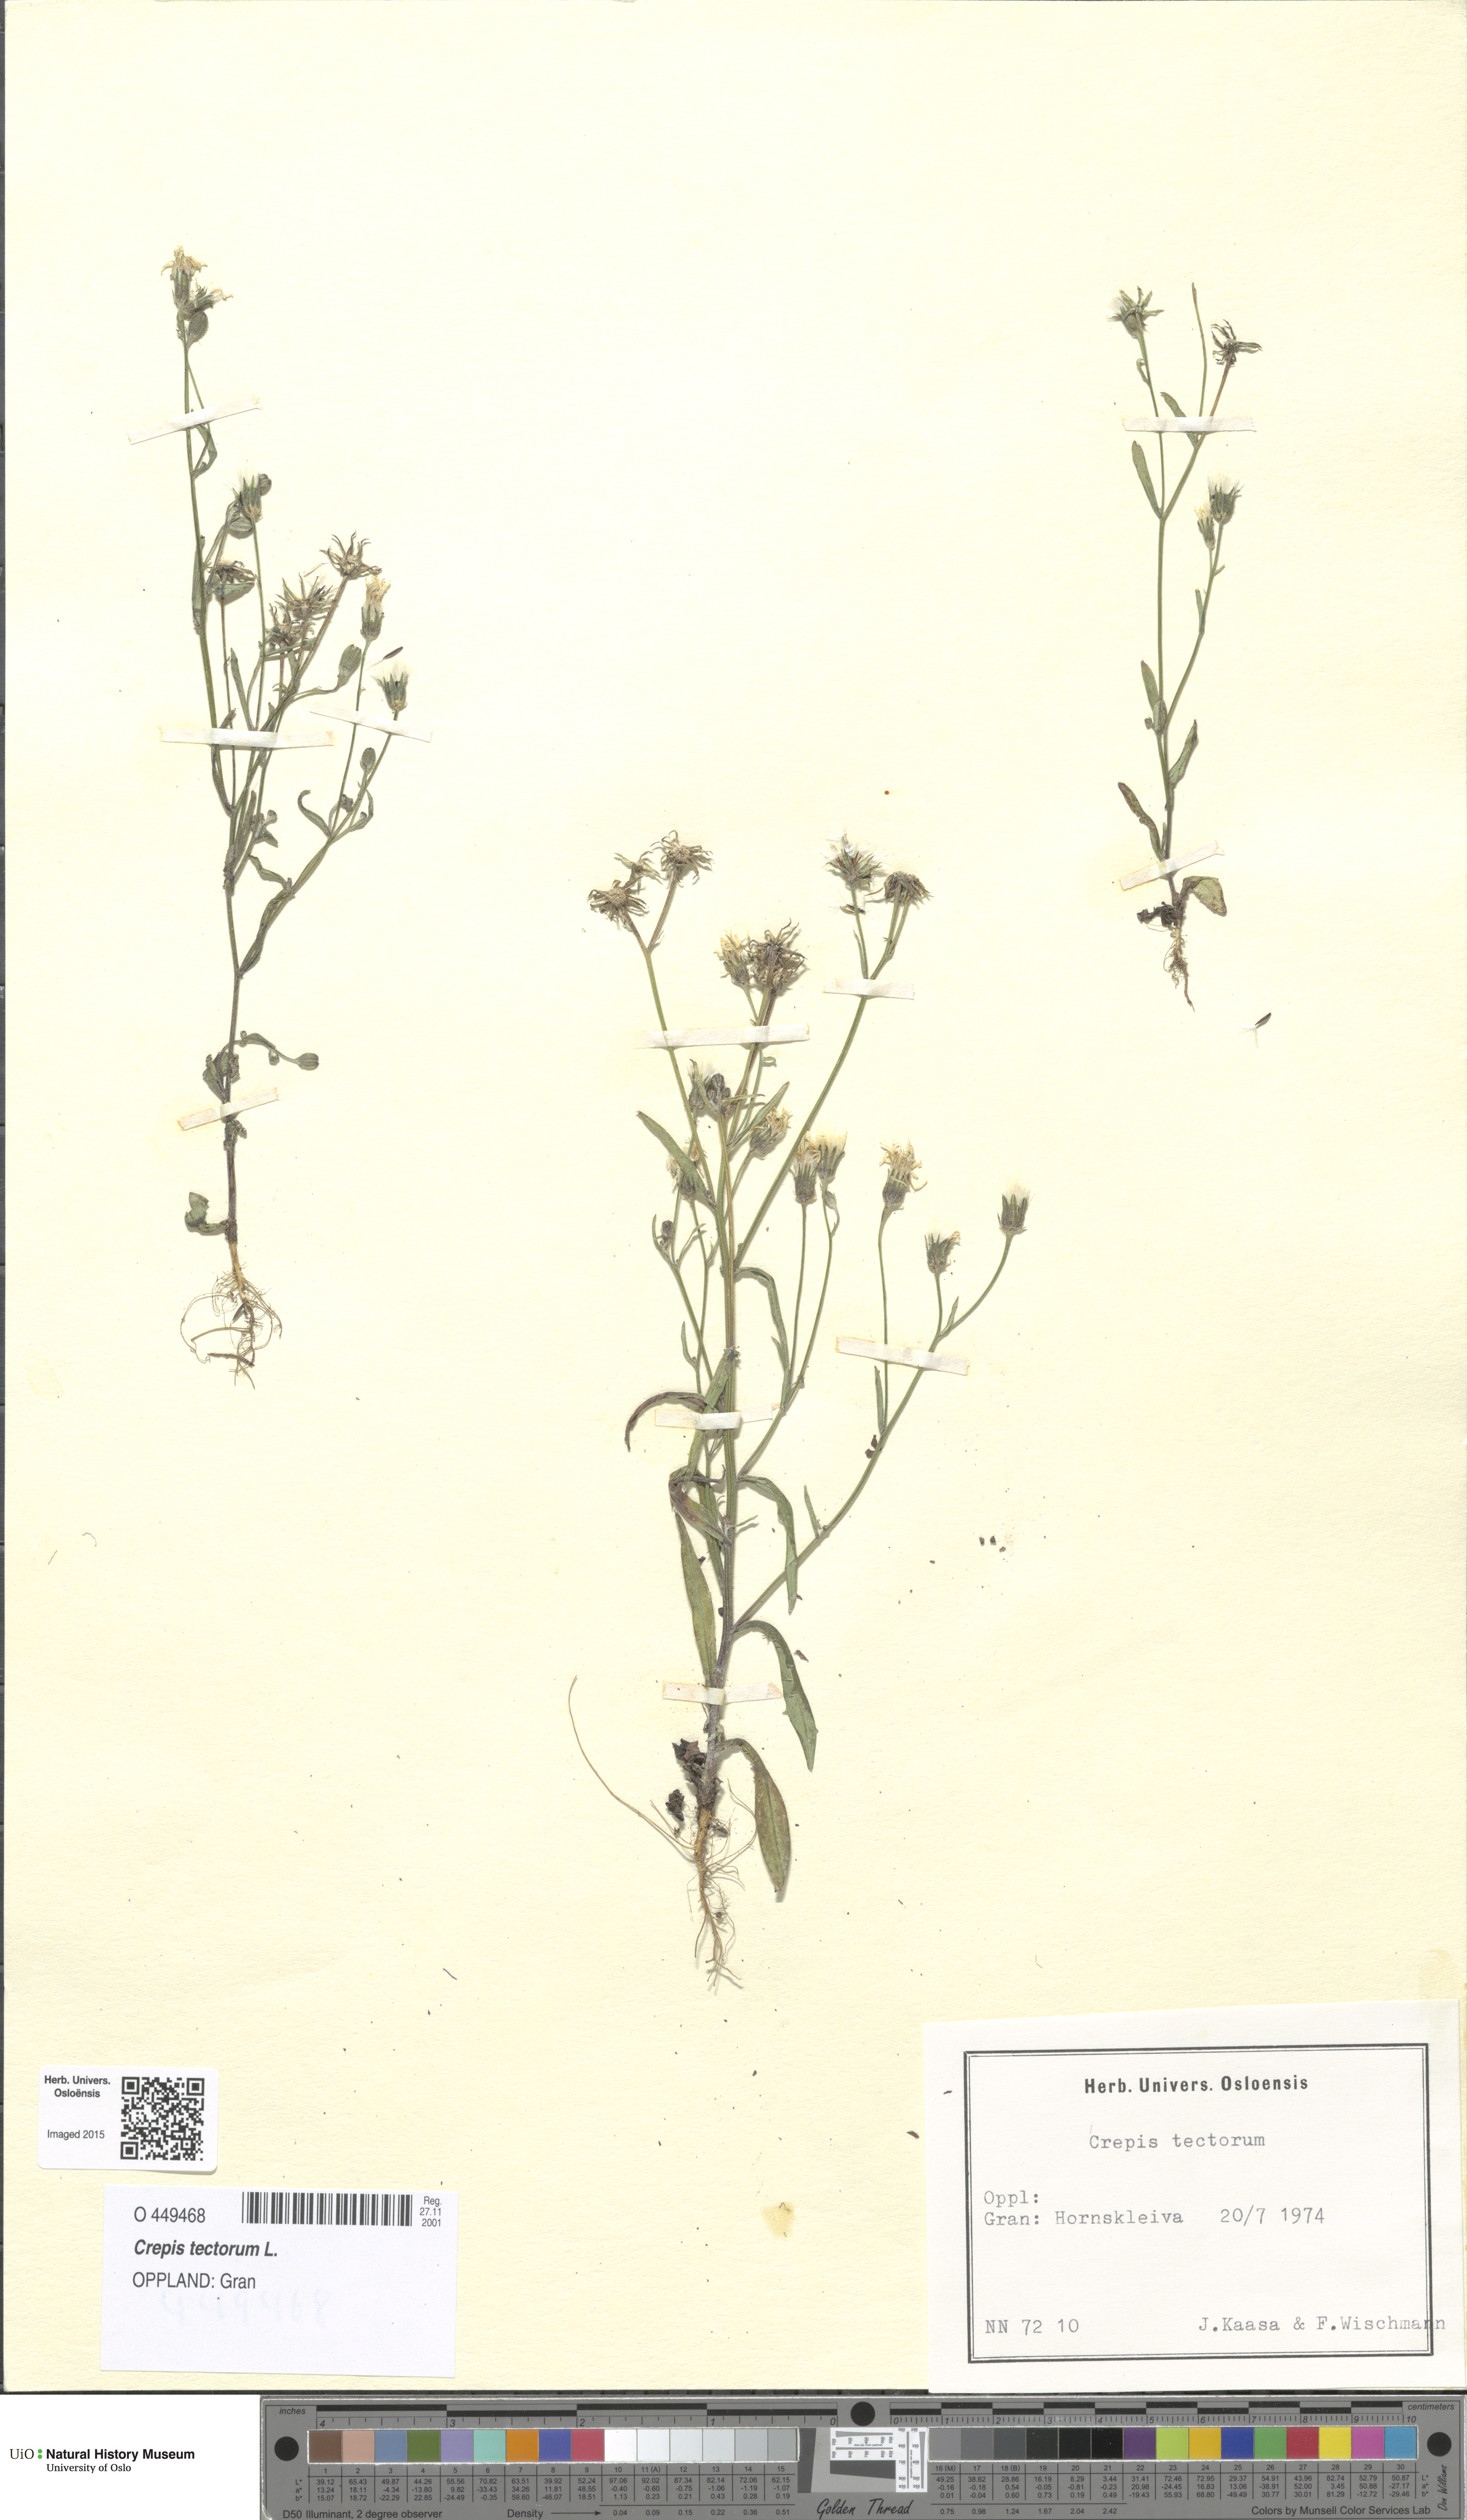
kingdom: Plantae
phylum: Tracheophyta
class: Magnoliopsida
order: Asterales
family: Asteraceae
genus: Crepis
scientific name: Crepis tectorum
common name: Narrow-leaved hawk's-beard
